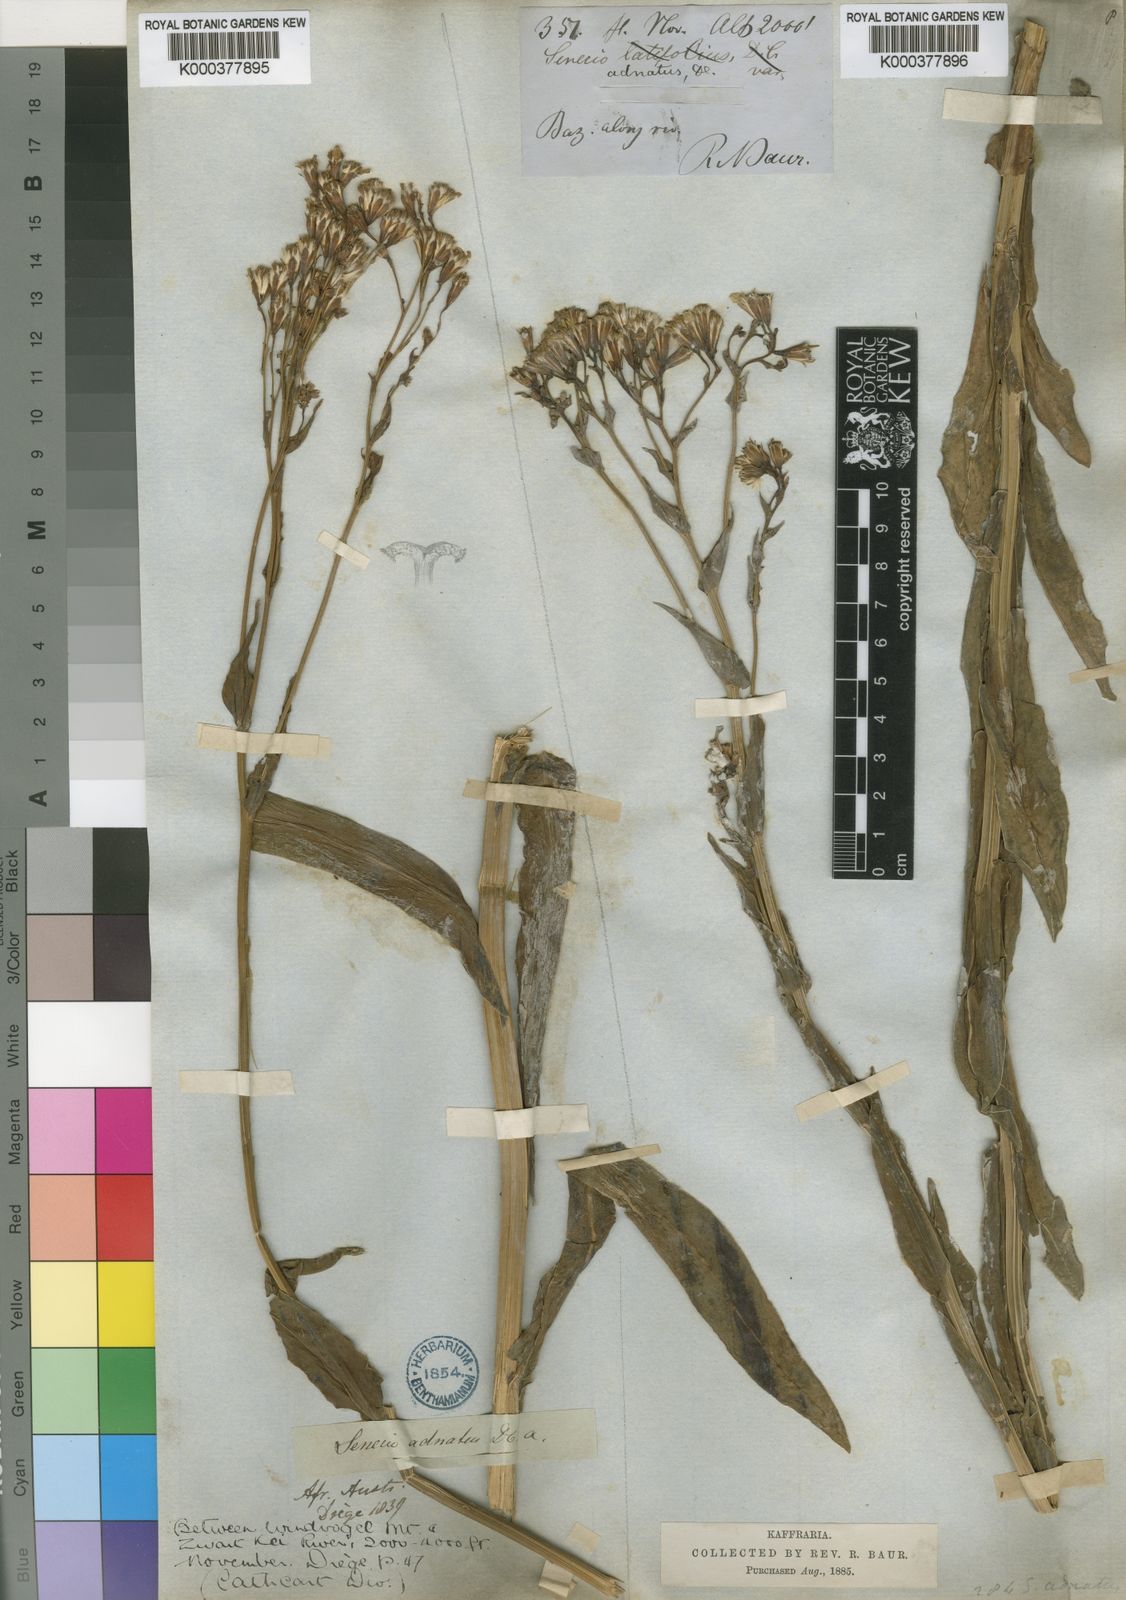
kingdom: Plantae
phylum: Tracheophyta
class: Magnoliopsida
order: Asterales
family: Asteraceae
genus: Senecio
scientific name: Senecio adnatus
